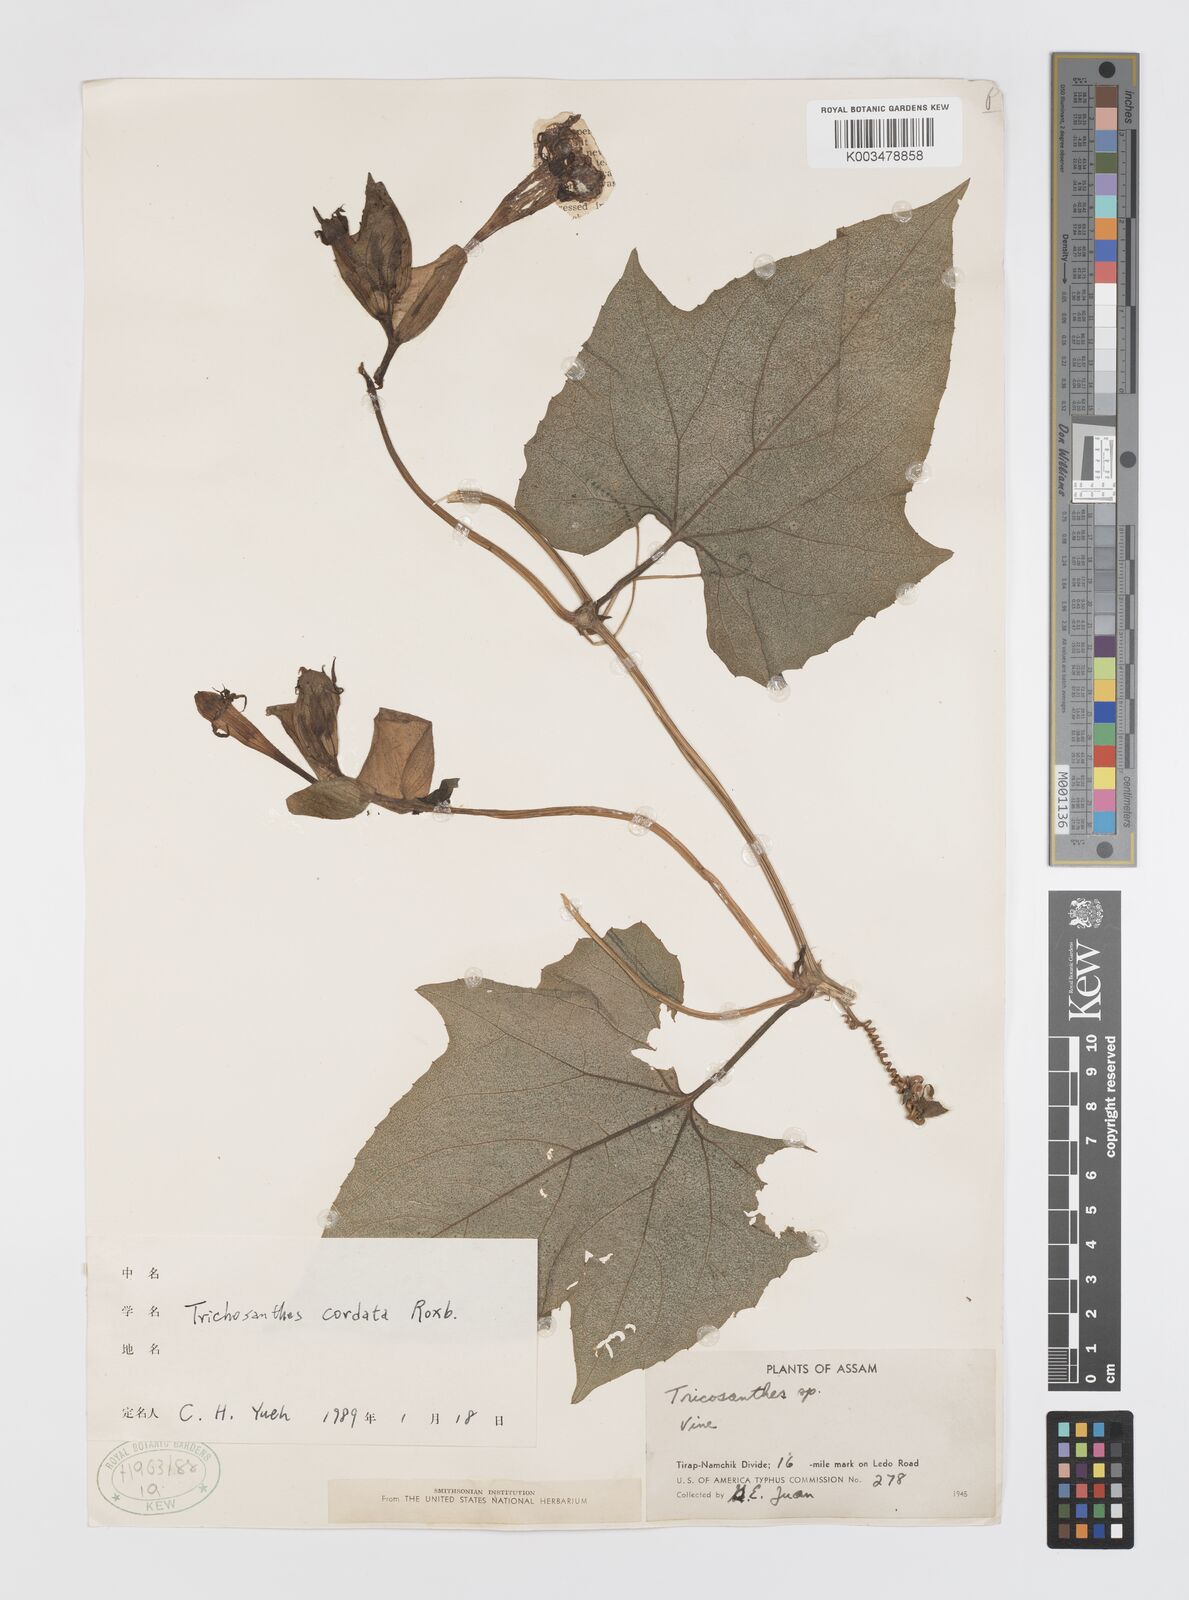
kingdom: Plantae
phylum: Tracheophyta
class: Magnoliopsida
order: Cucurbitales
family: Cucurbitaceae
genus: Trichosanthes
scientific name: Trichosanthes cordata
